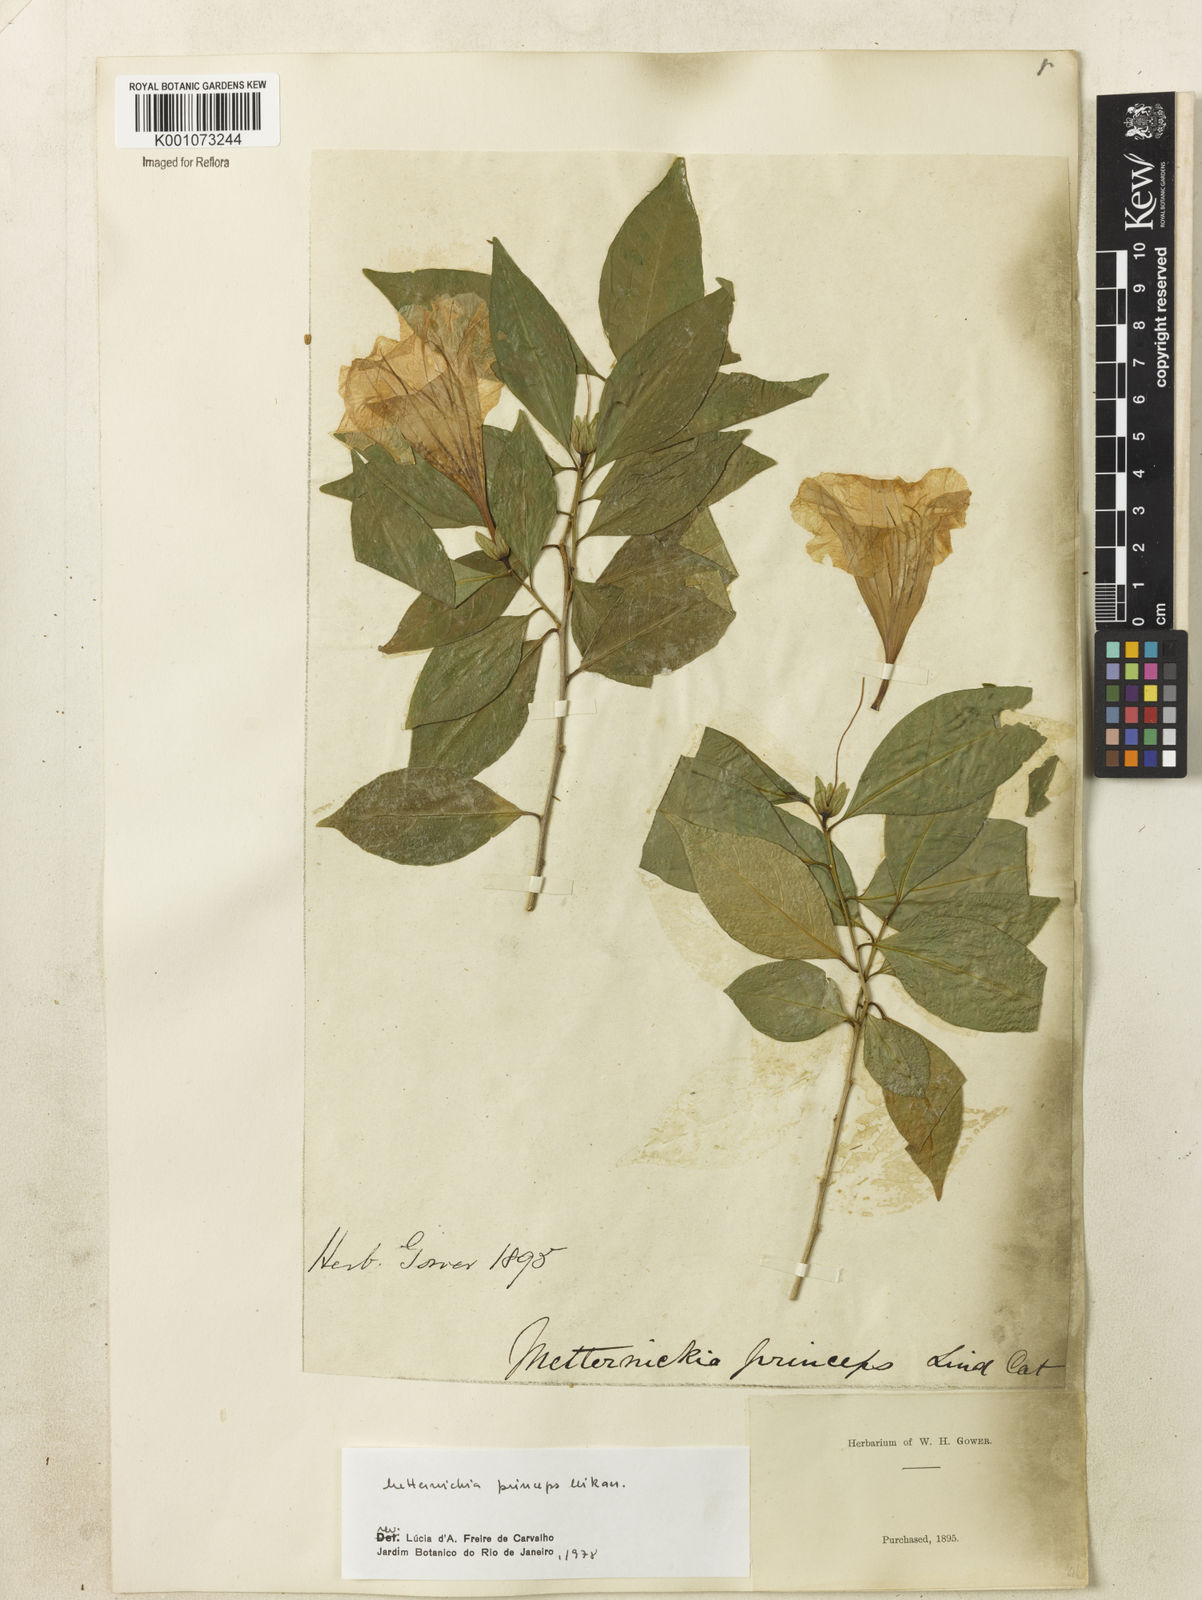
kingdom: Plantae
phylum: Tracheophyta
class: Magnoliopsida
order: Solanales
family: Solanaceae
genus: Metternichia
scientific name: Metternichia
